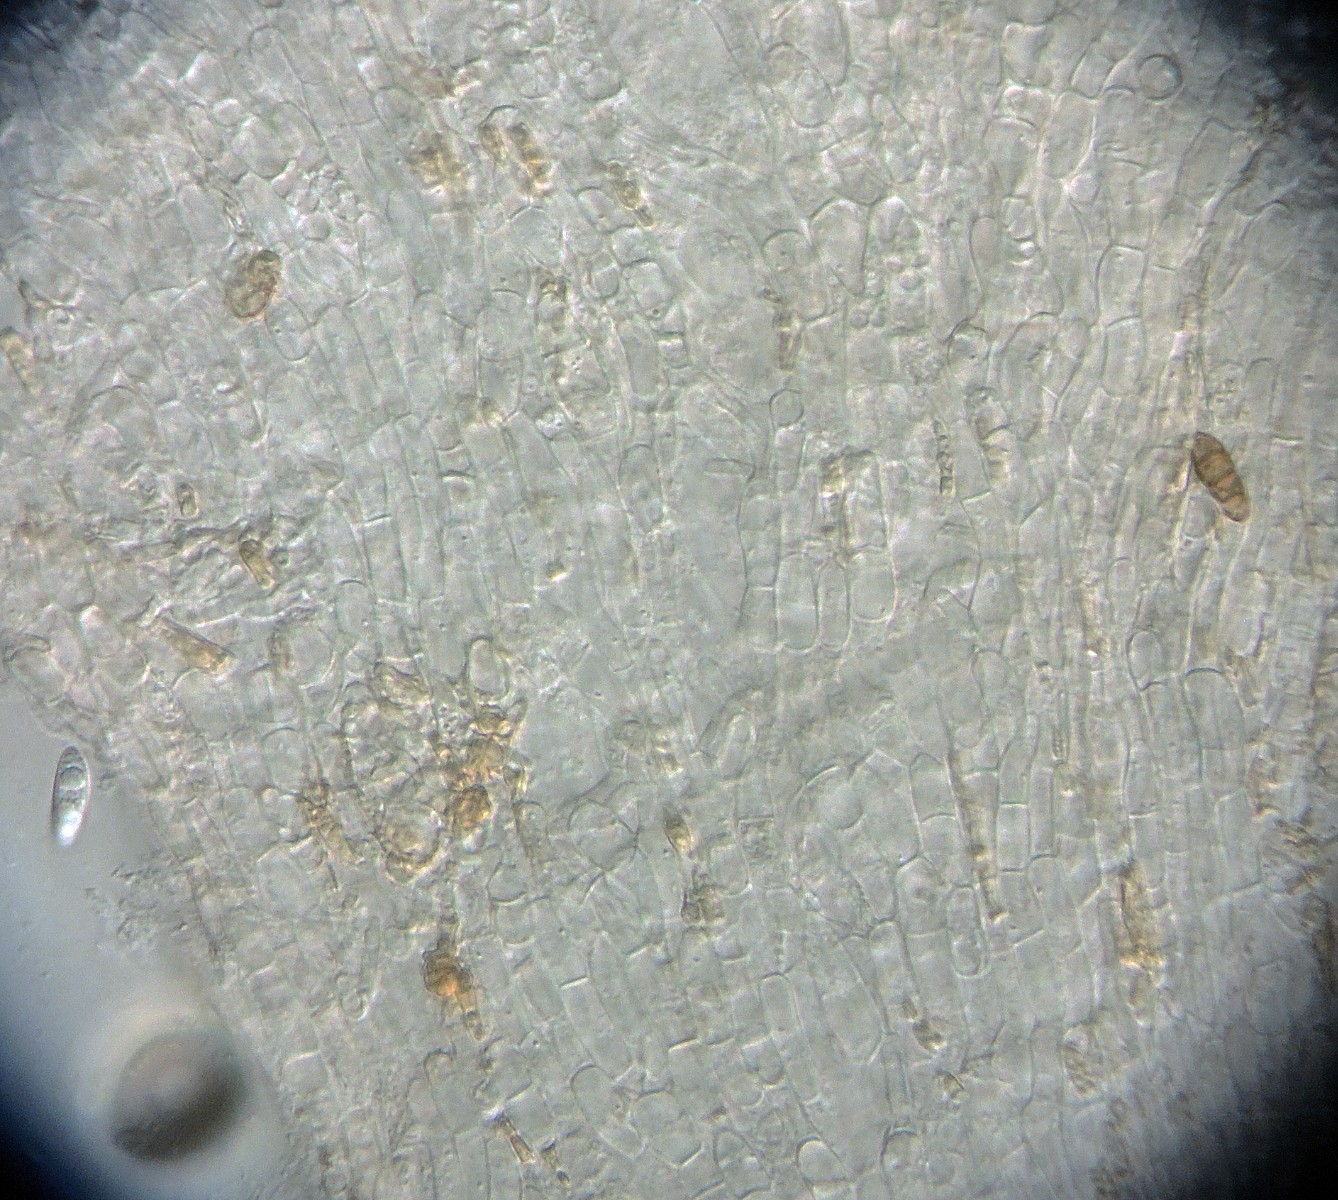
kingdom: Fungi
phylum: Ascomycota
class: Leotiomycetes
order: Helotiales
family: Helotiaceae
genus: Hymenoscyphus
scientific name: Hymenoscyphus macroguttatus
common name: stordråbet stilkskive
